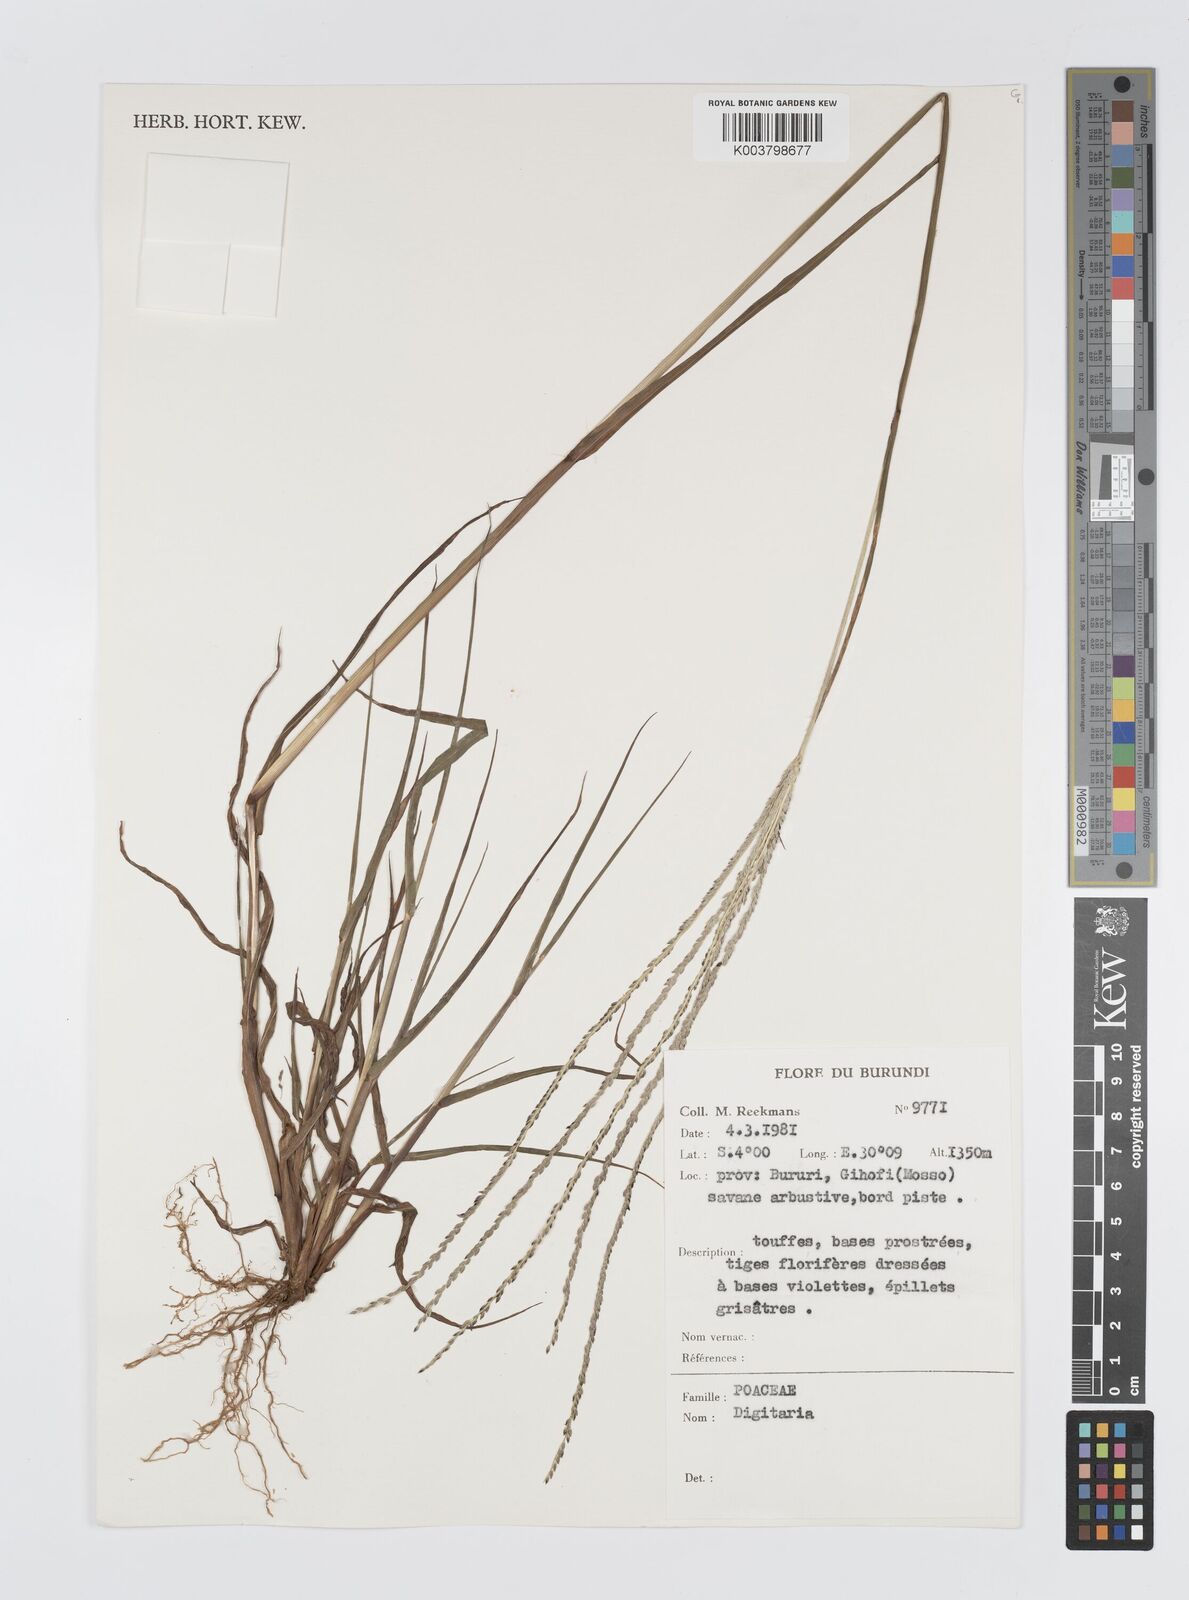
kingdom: Plantae
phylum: Tracheophyta
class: Liliopsida
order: Poales
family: Poaceae
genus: Digitaria
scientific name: Digitaria spec
